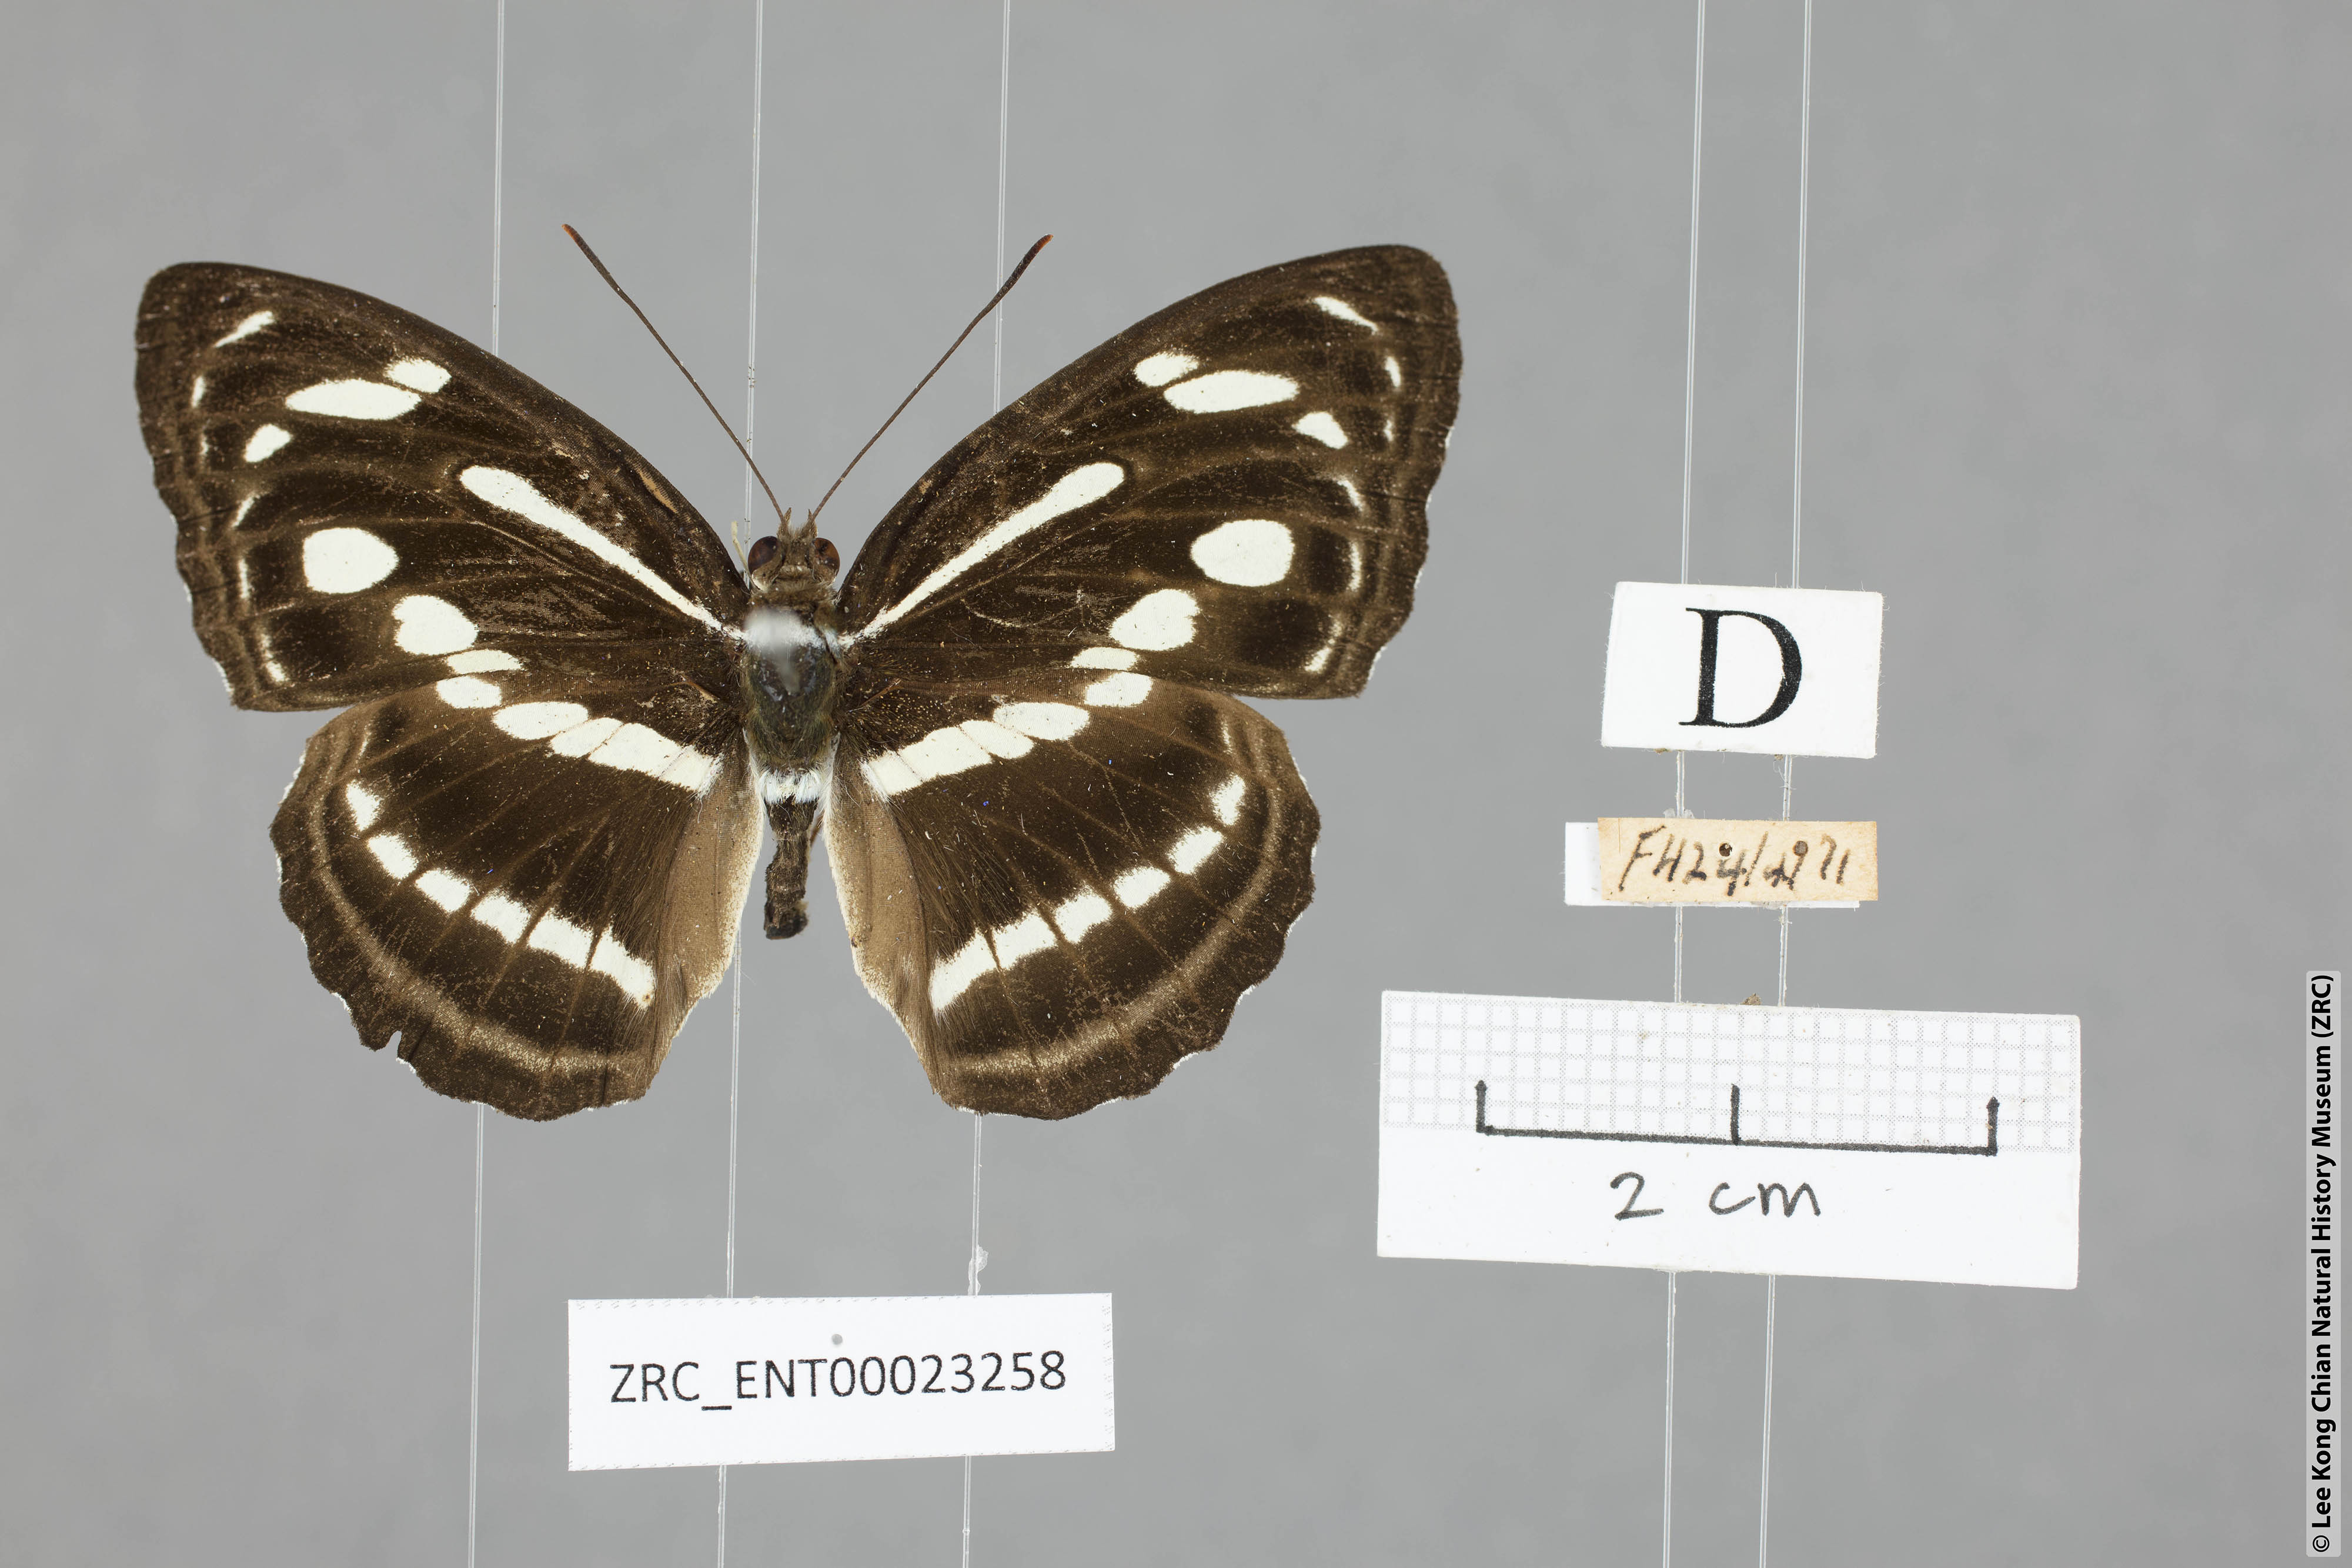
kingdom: Animalia
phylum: Arthropoda
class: Insecta
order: Lepidoptera
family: Nymphalidae
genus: Parathyma
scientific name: Parathyma pravara
